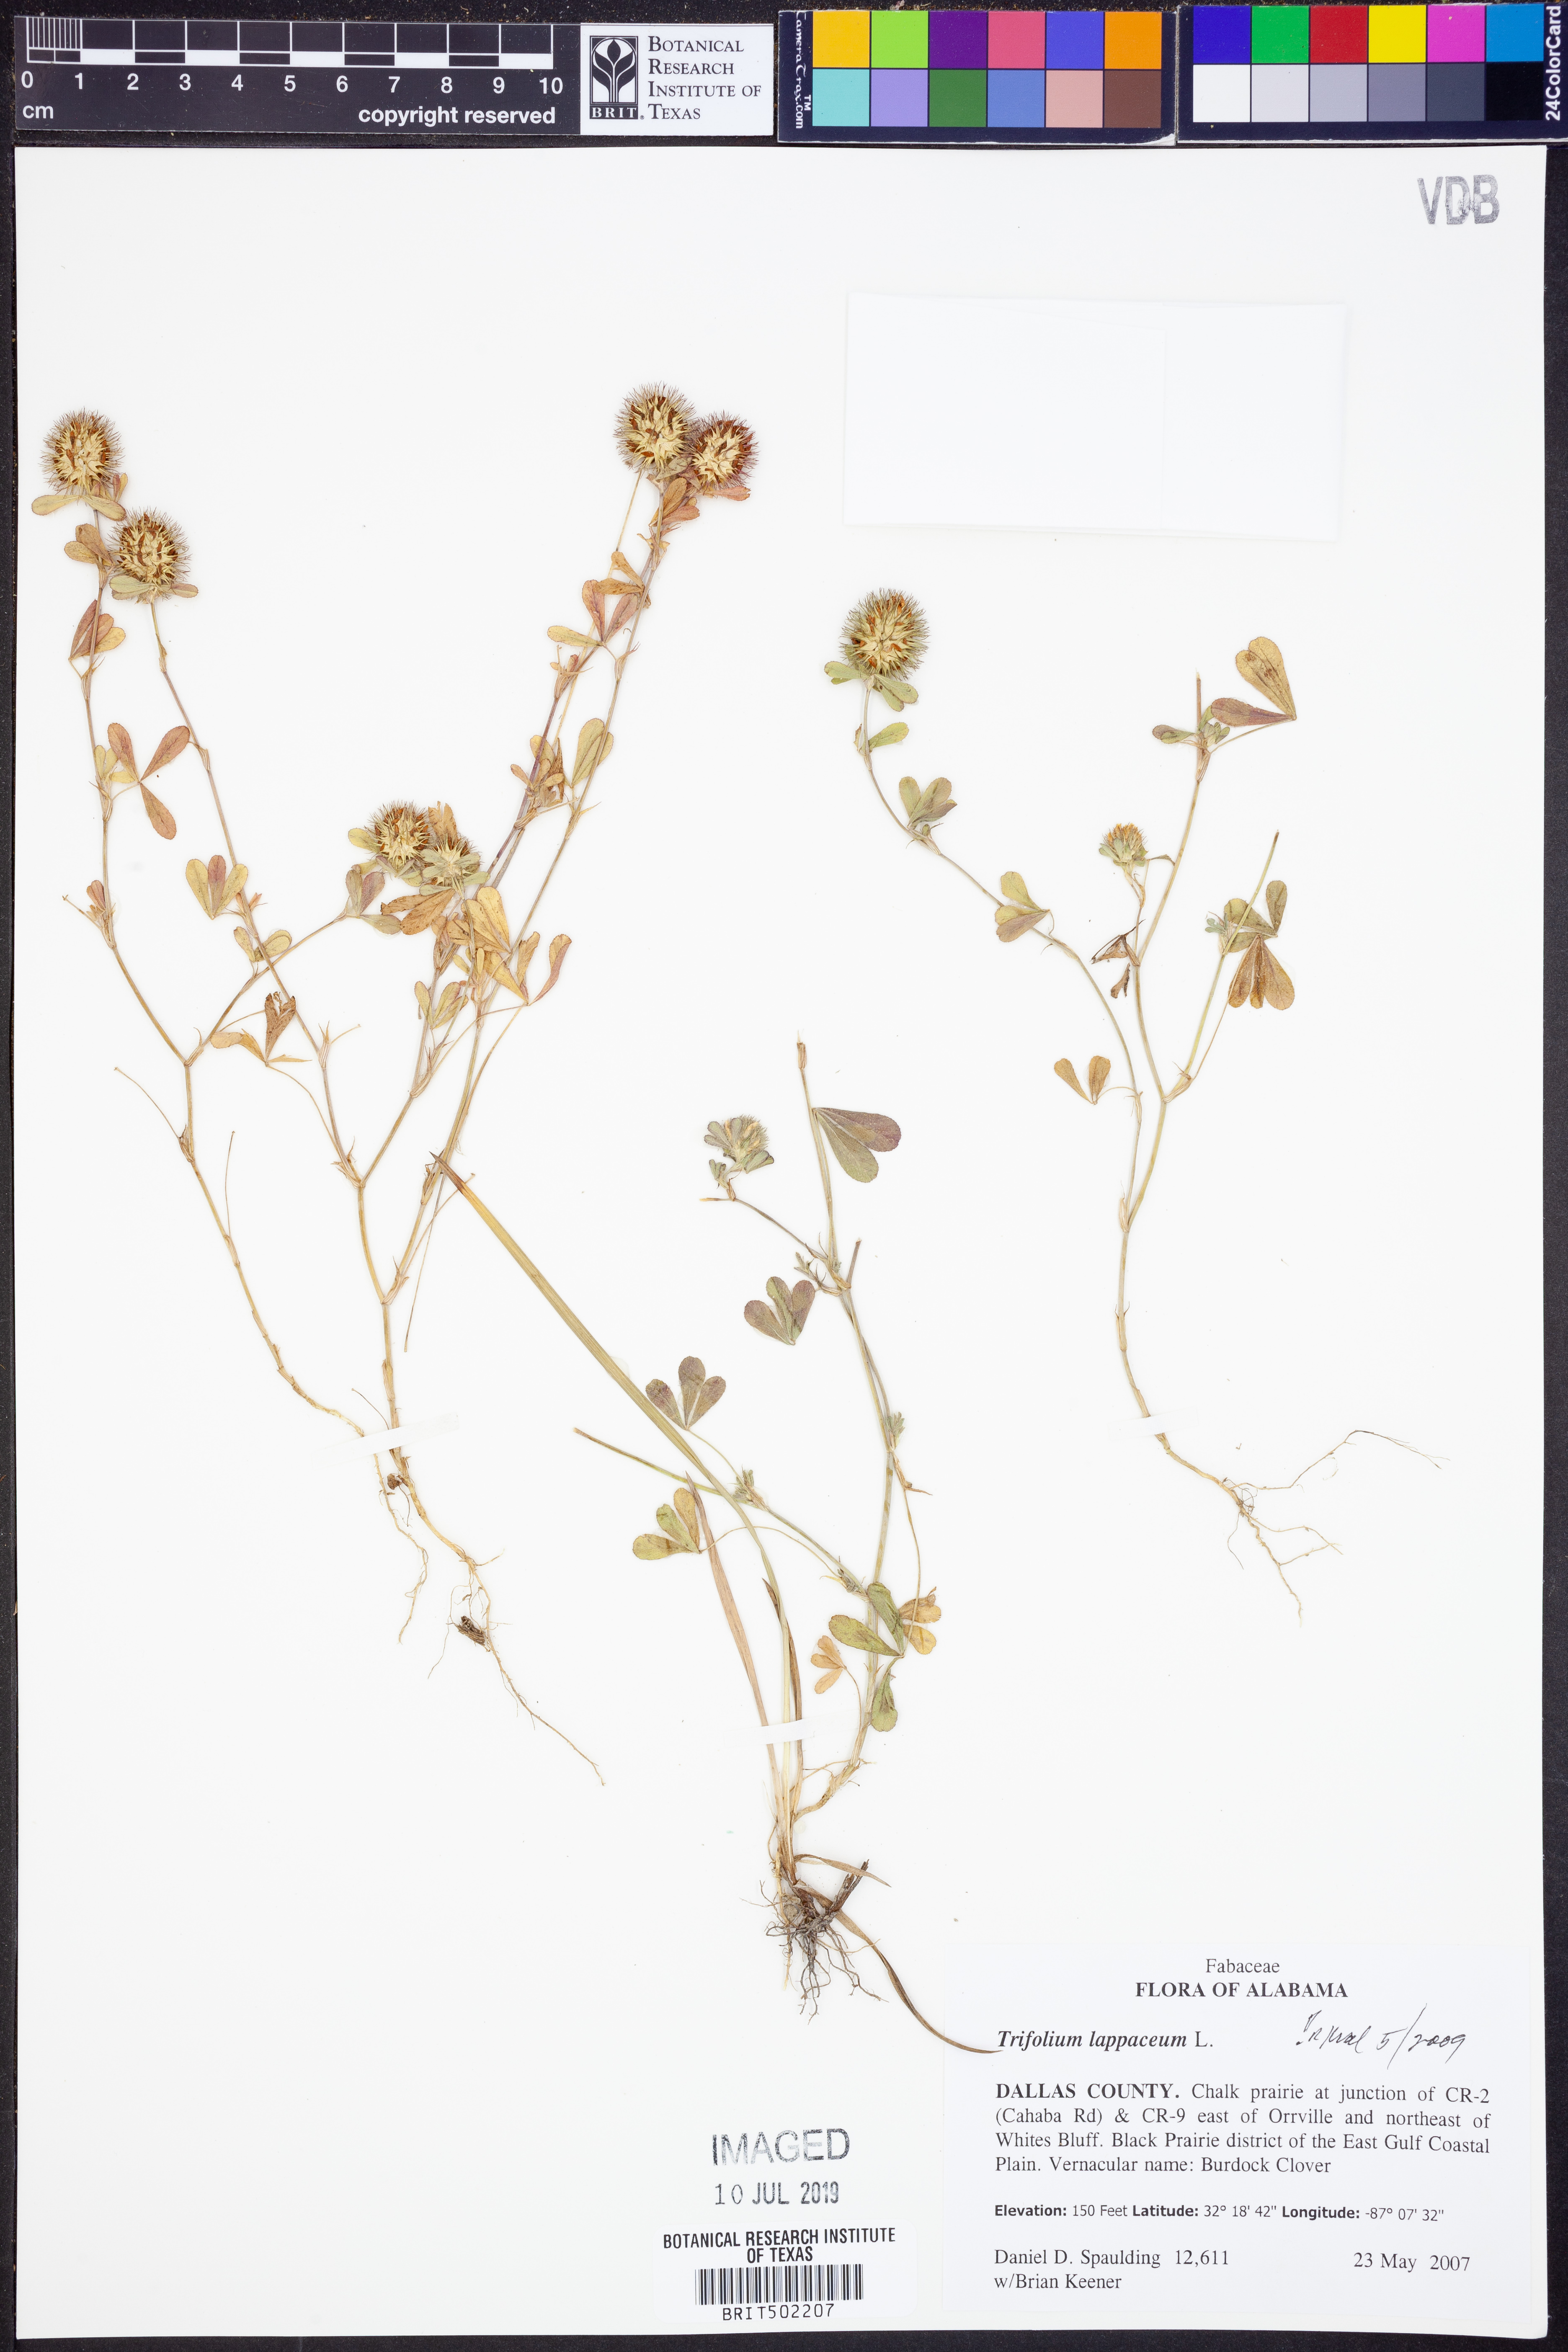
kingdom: Plantae
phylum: Tracheophyta
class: Magnoliopsida
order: Fabales
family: Fabaceae
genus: Trifolium
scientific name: Trifolium lappaceum
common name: Bur clover
